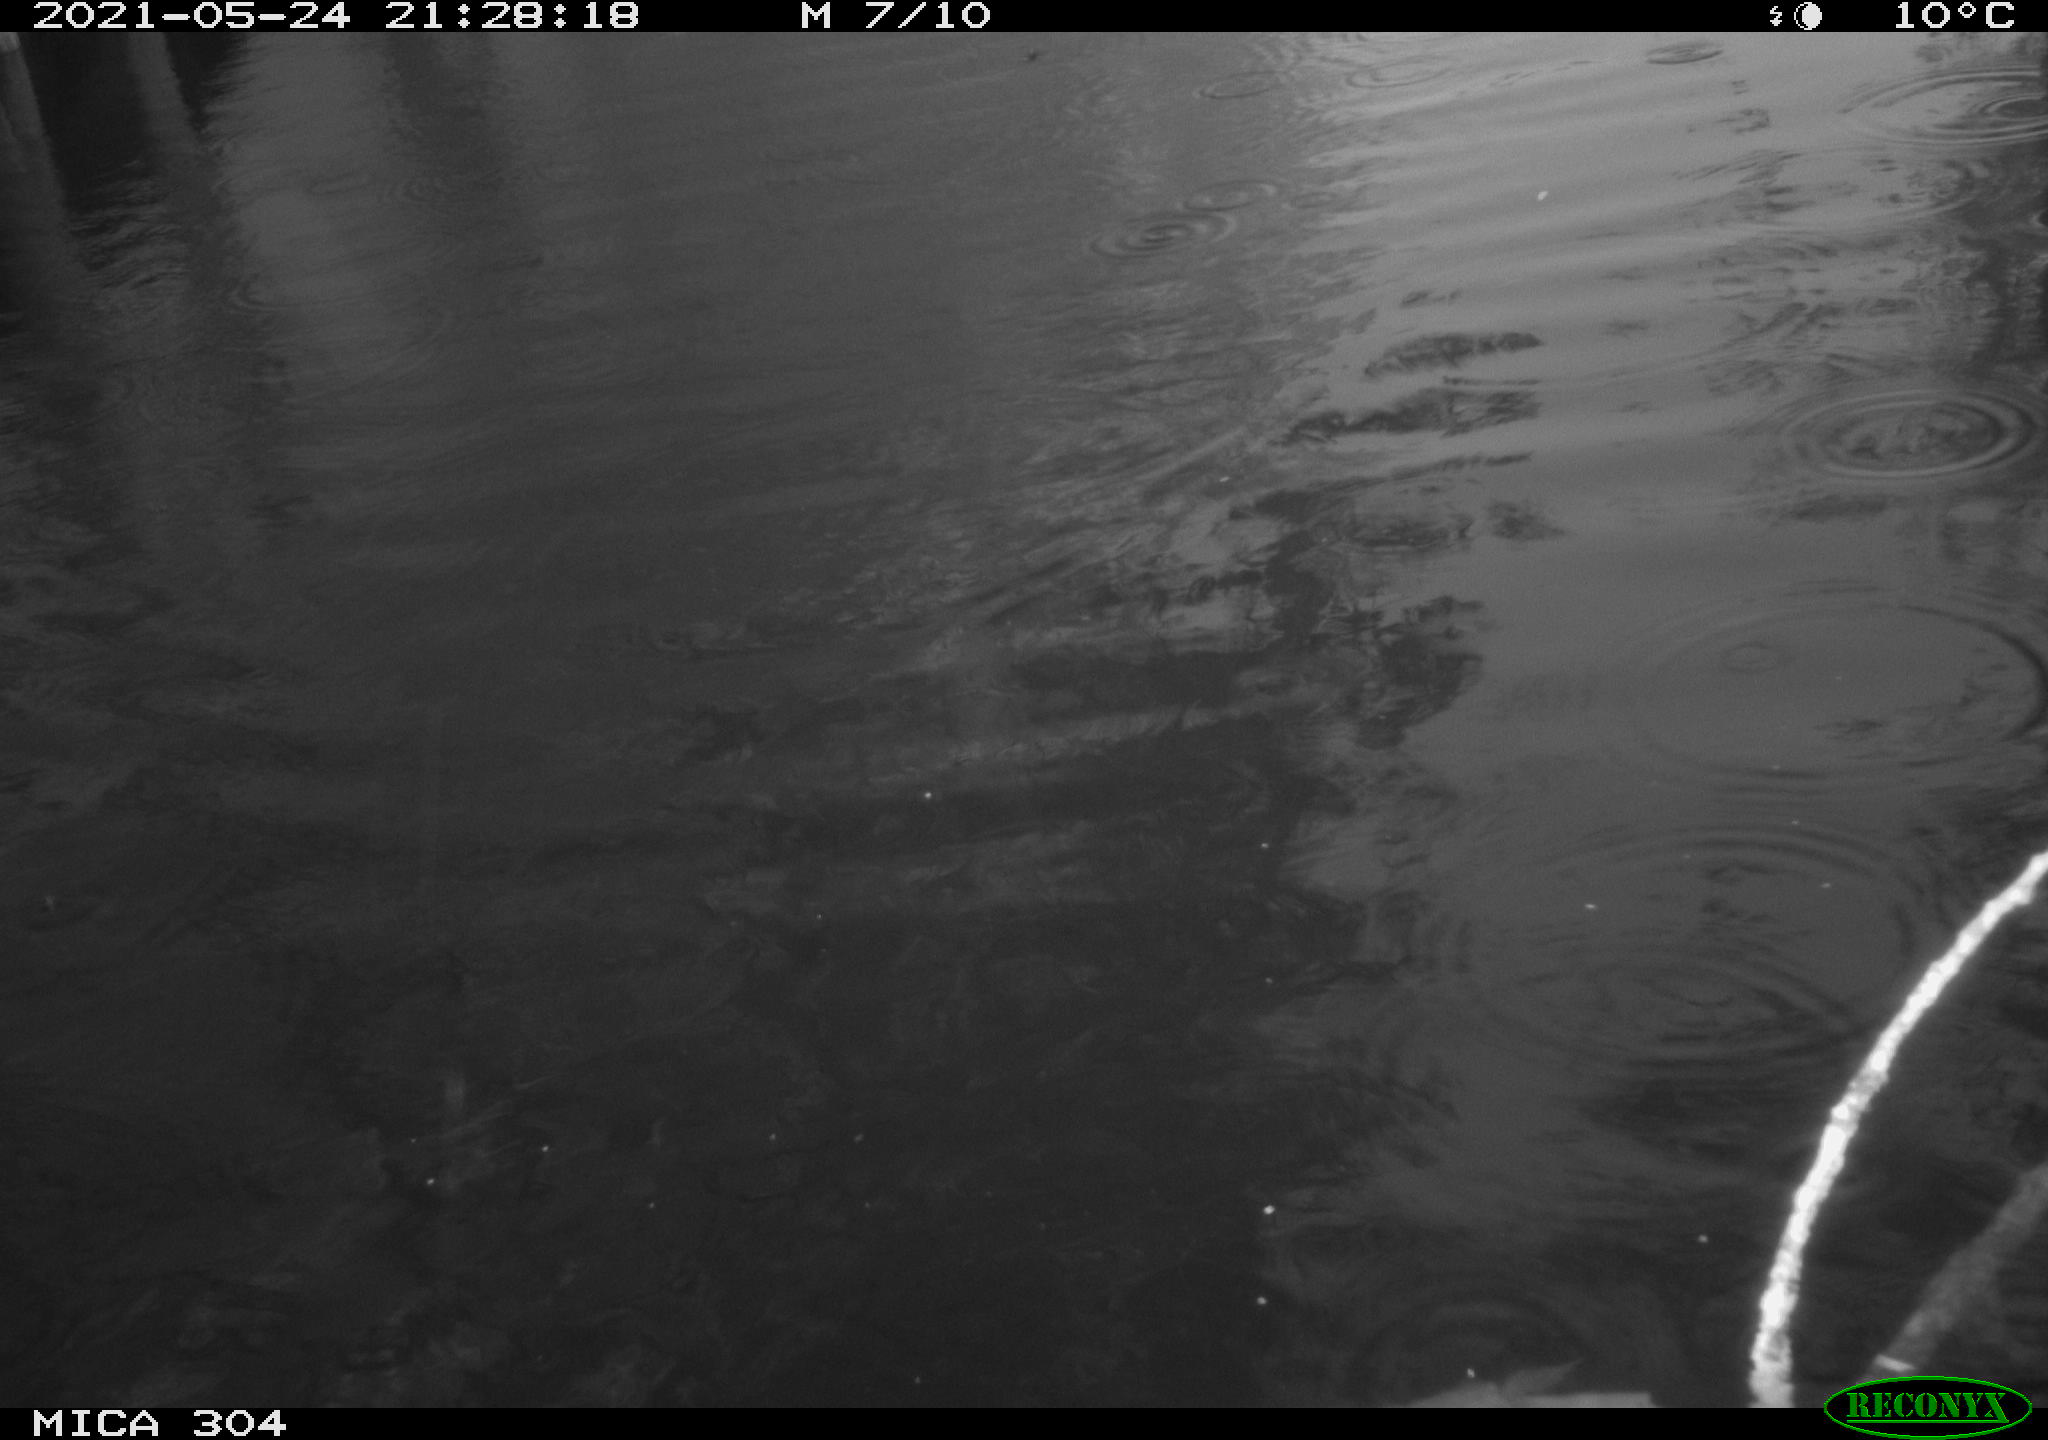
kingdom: Animalia
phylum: Chordata
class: Aves
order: Gruiformes
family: Rallidae
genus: Fulica
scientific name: Fulica atra
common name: Eurasian coot
